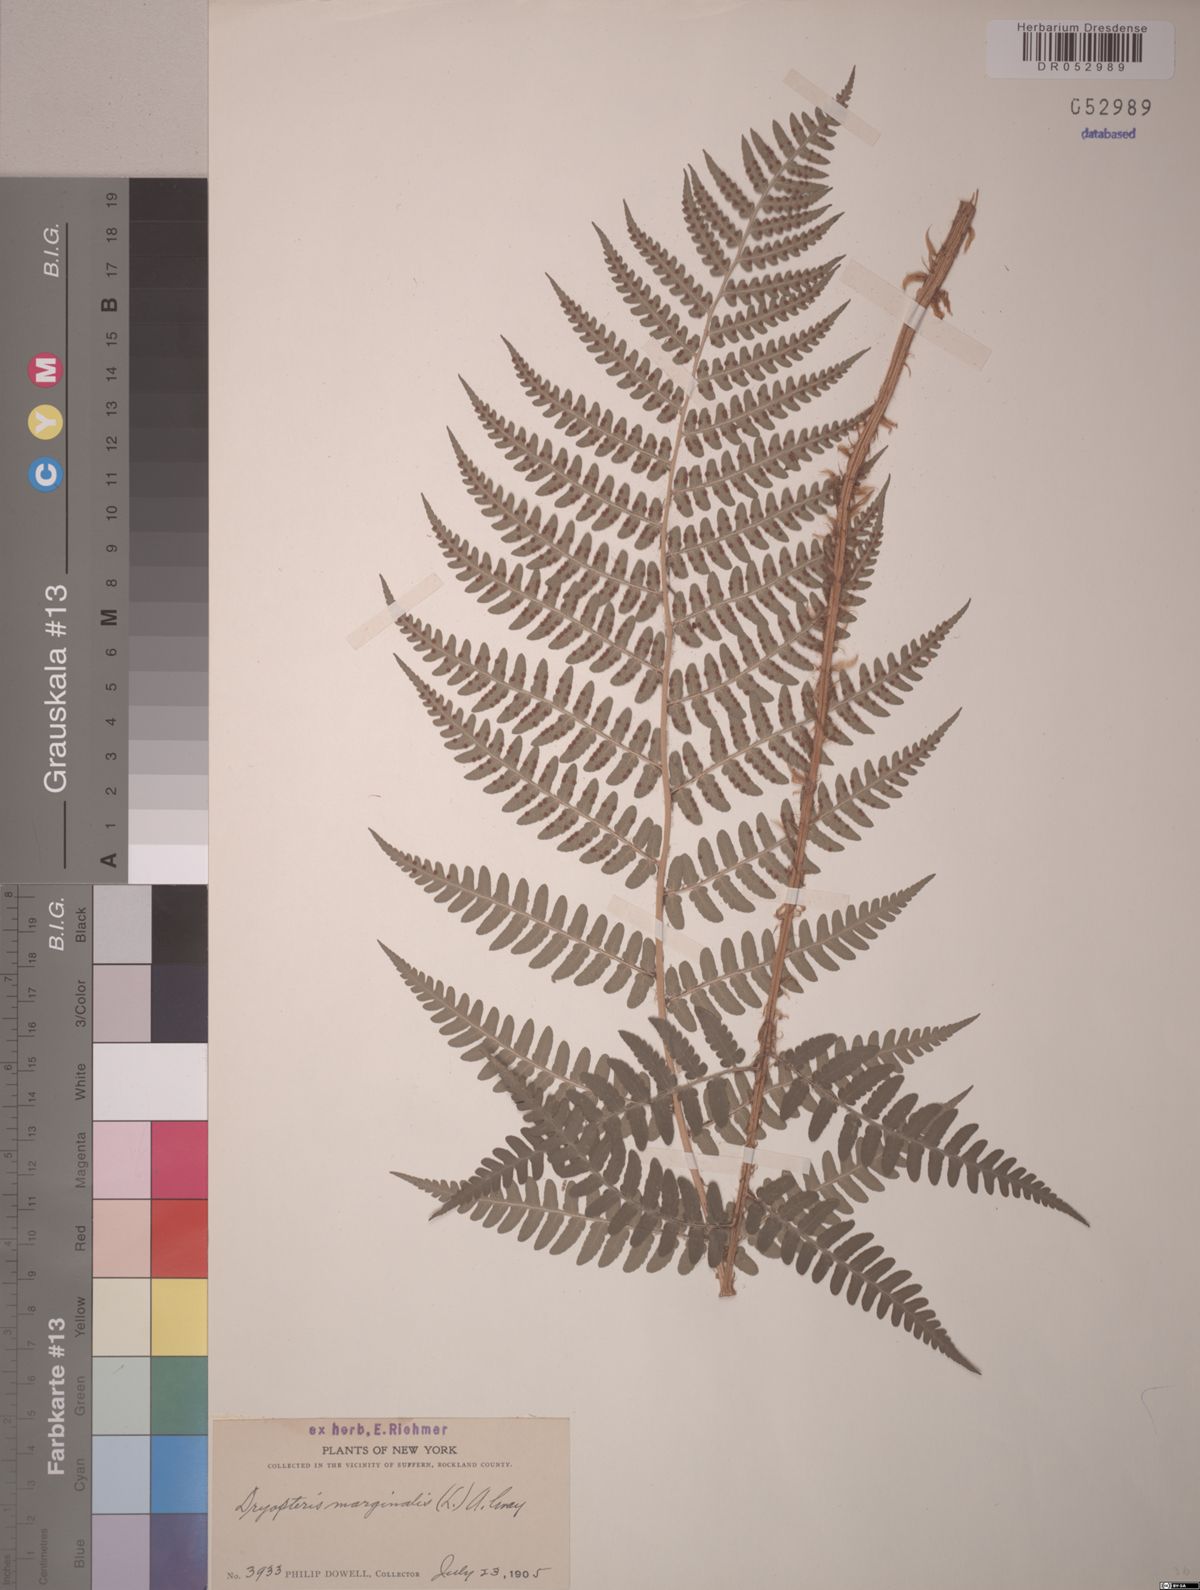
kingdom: Plantae
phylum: Tracheophyta
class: Polypodiopsida
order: Polypodiales
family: Dryopteridaceae
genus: Dryopteris
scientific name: Dryopteris marginalis
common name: Marginal wood fern
